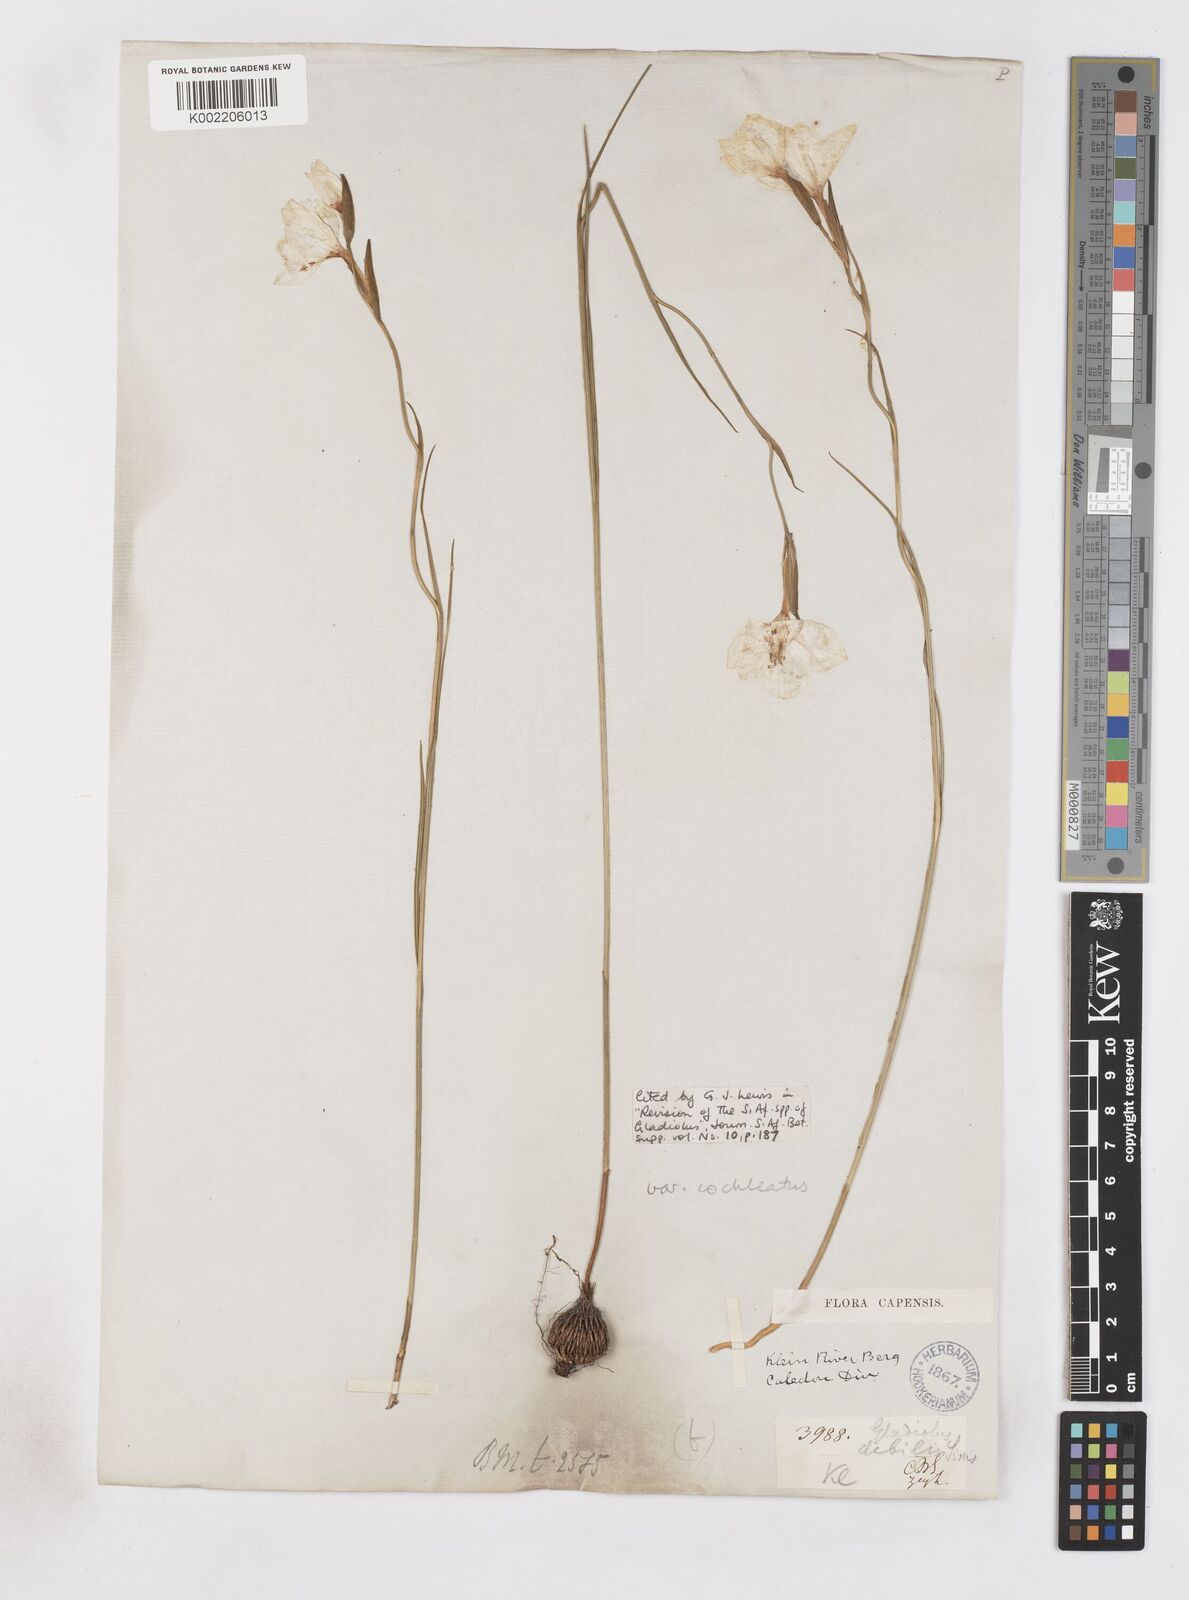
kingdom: Plantae
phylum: Tracheophyta
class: Liliopsida
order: Asparagales
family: Iridaceae
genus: Gladiolus
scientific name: Gladiolus debilis
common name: Painted-lady
